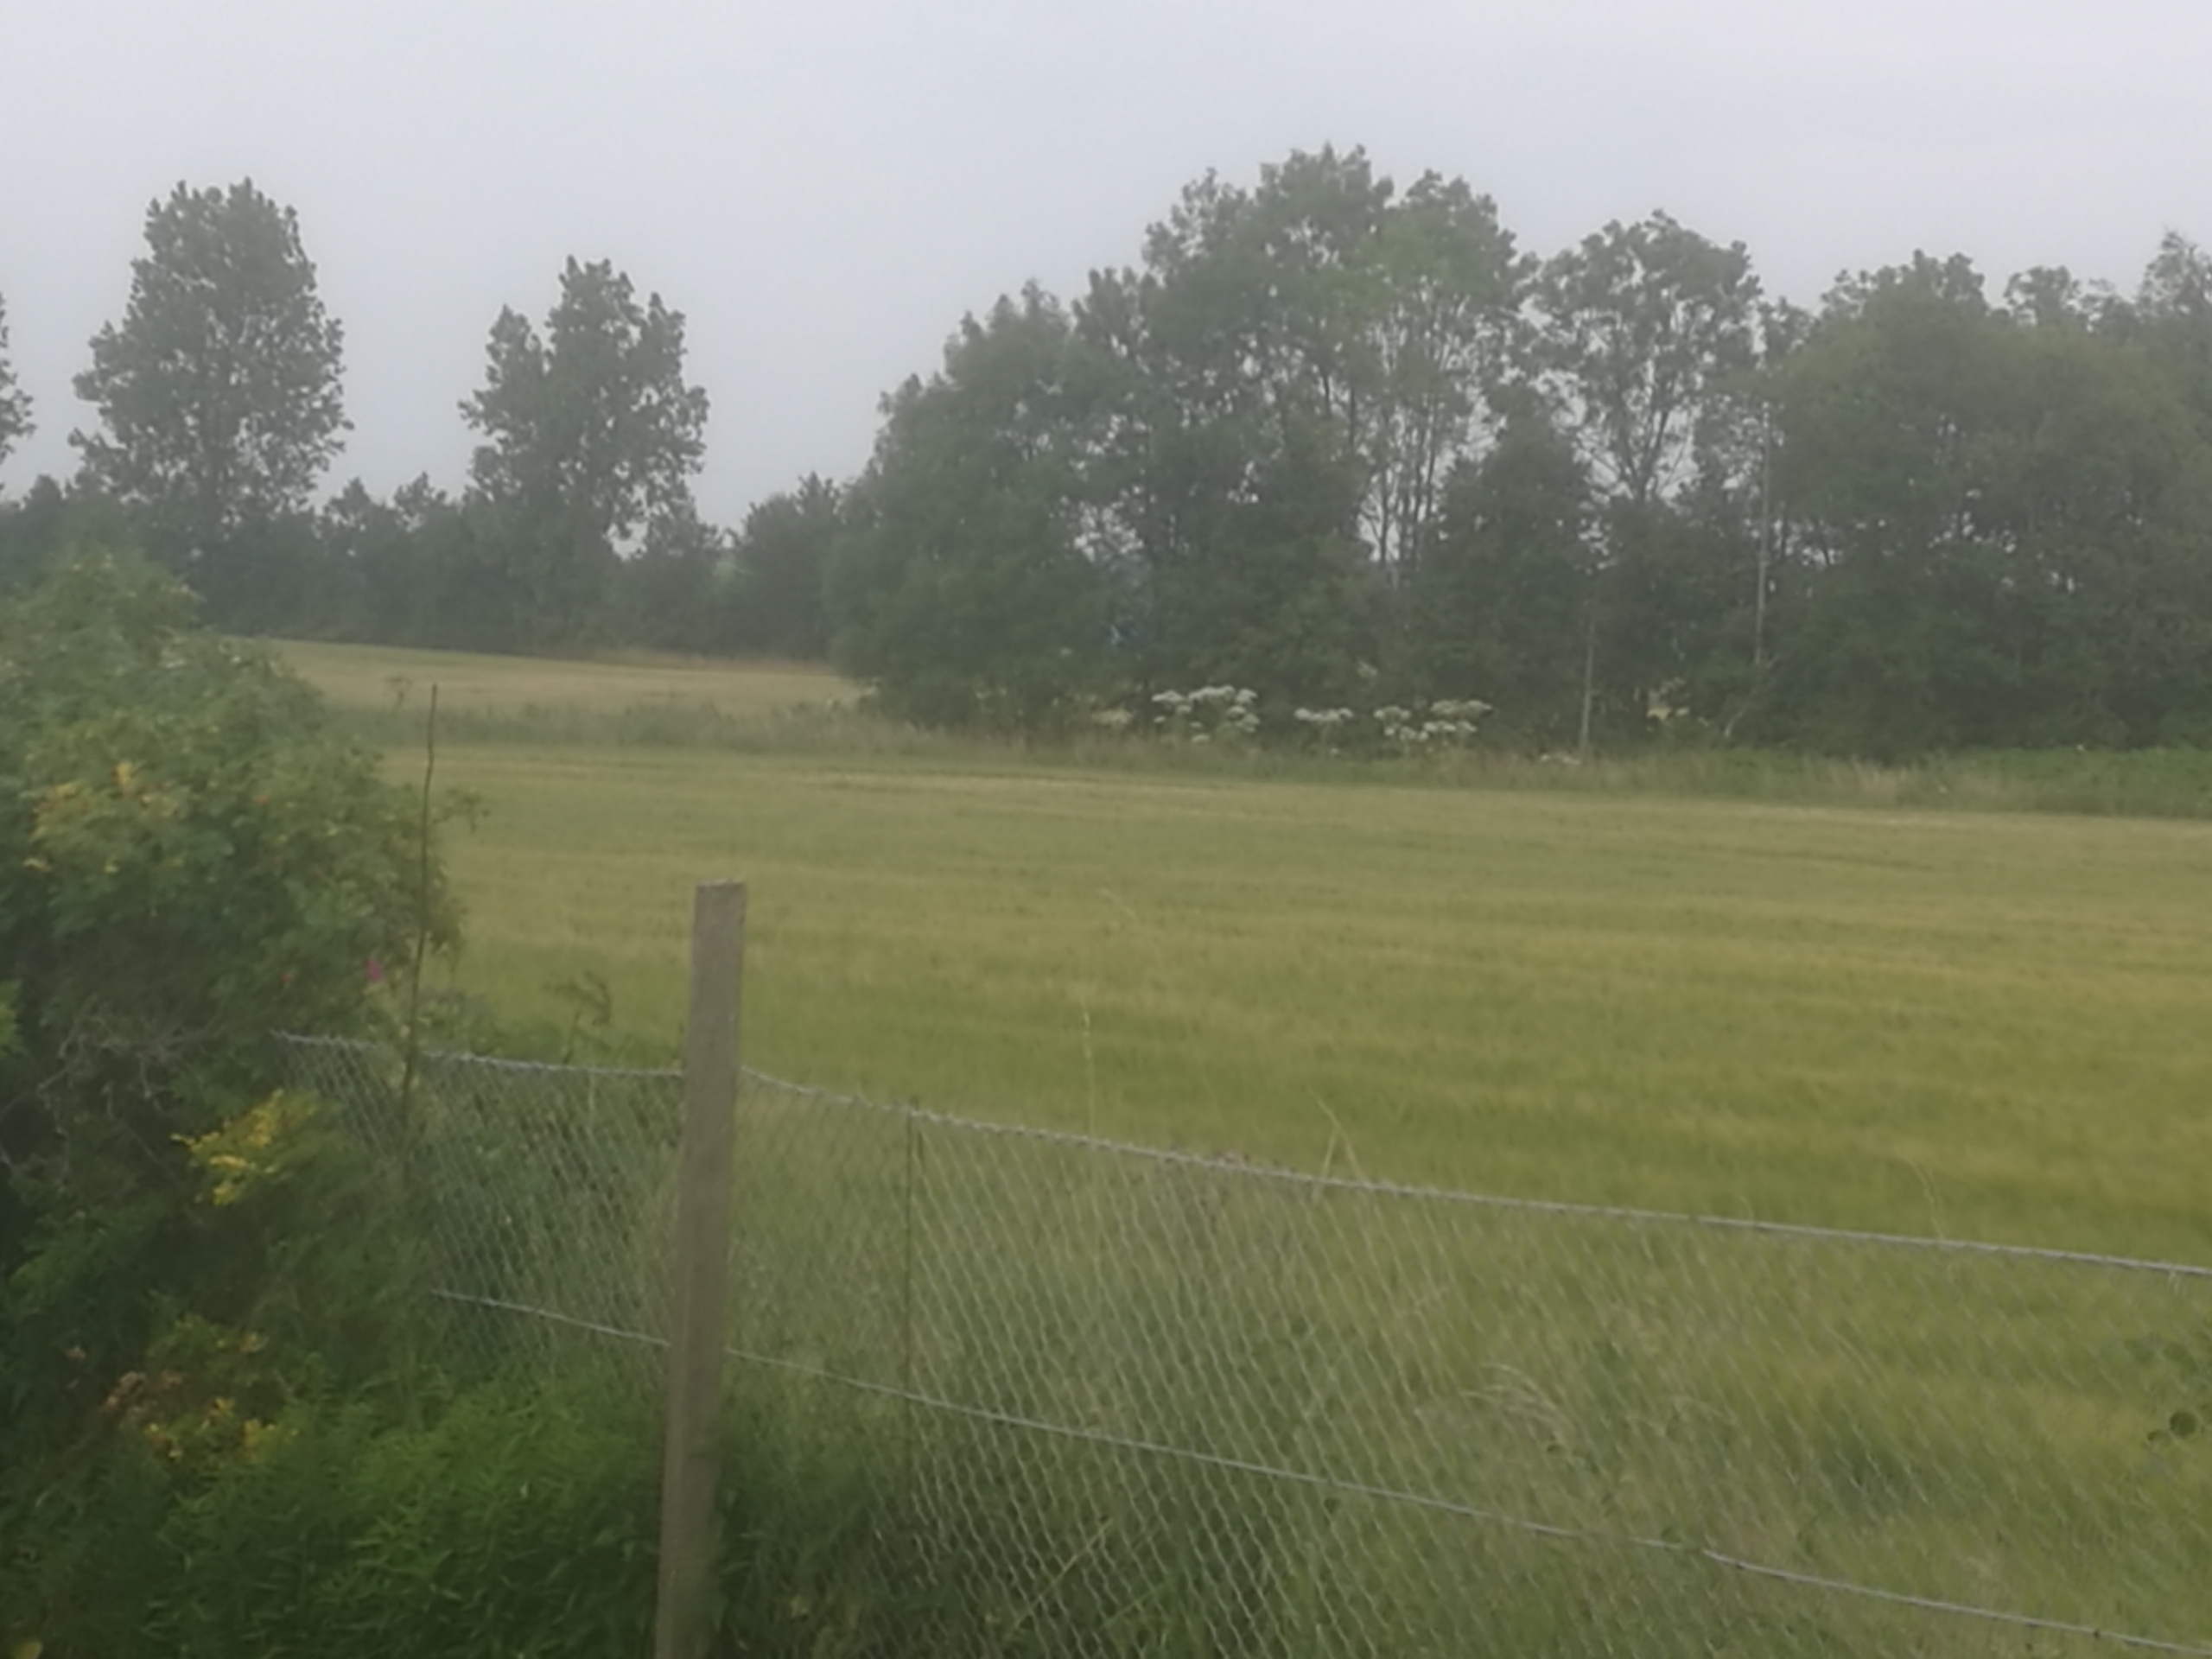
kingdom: Plantae
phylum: Tracheophyta
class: Magnoliopsida
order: Apiales
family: Apiaceae
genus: Heracleum
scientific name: Heracleum mantegazzianum
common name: Kæmpe-bjørneklo
